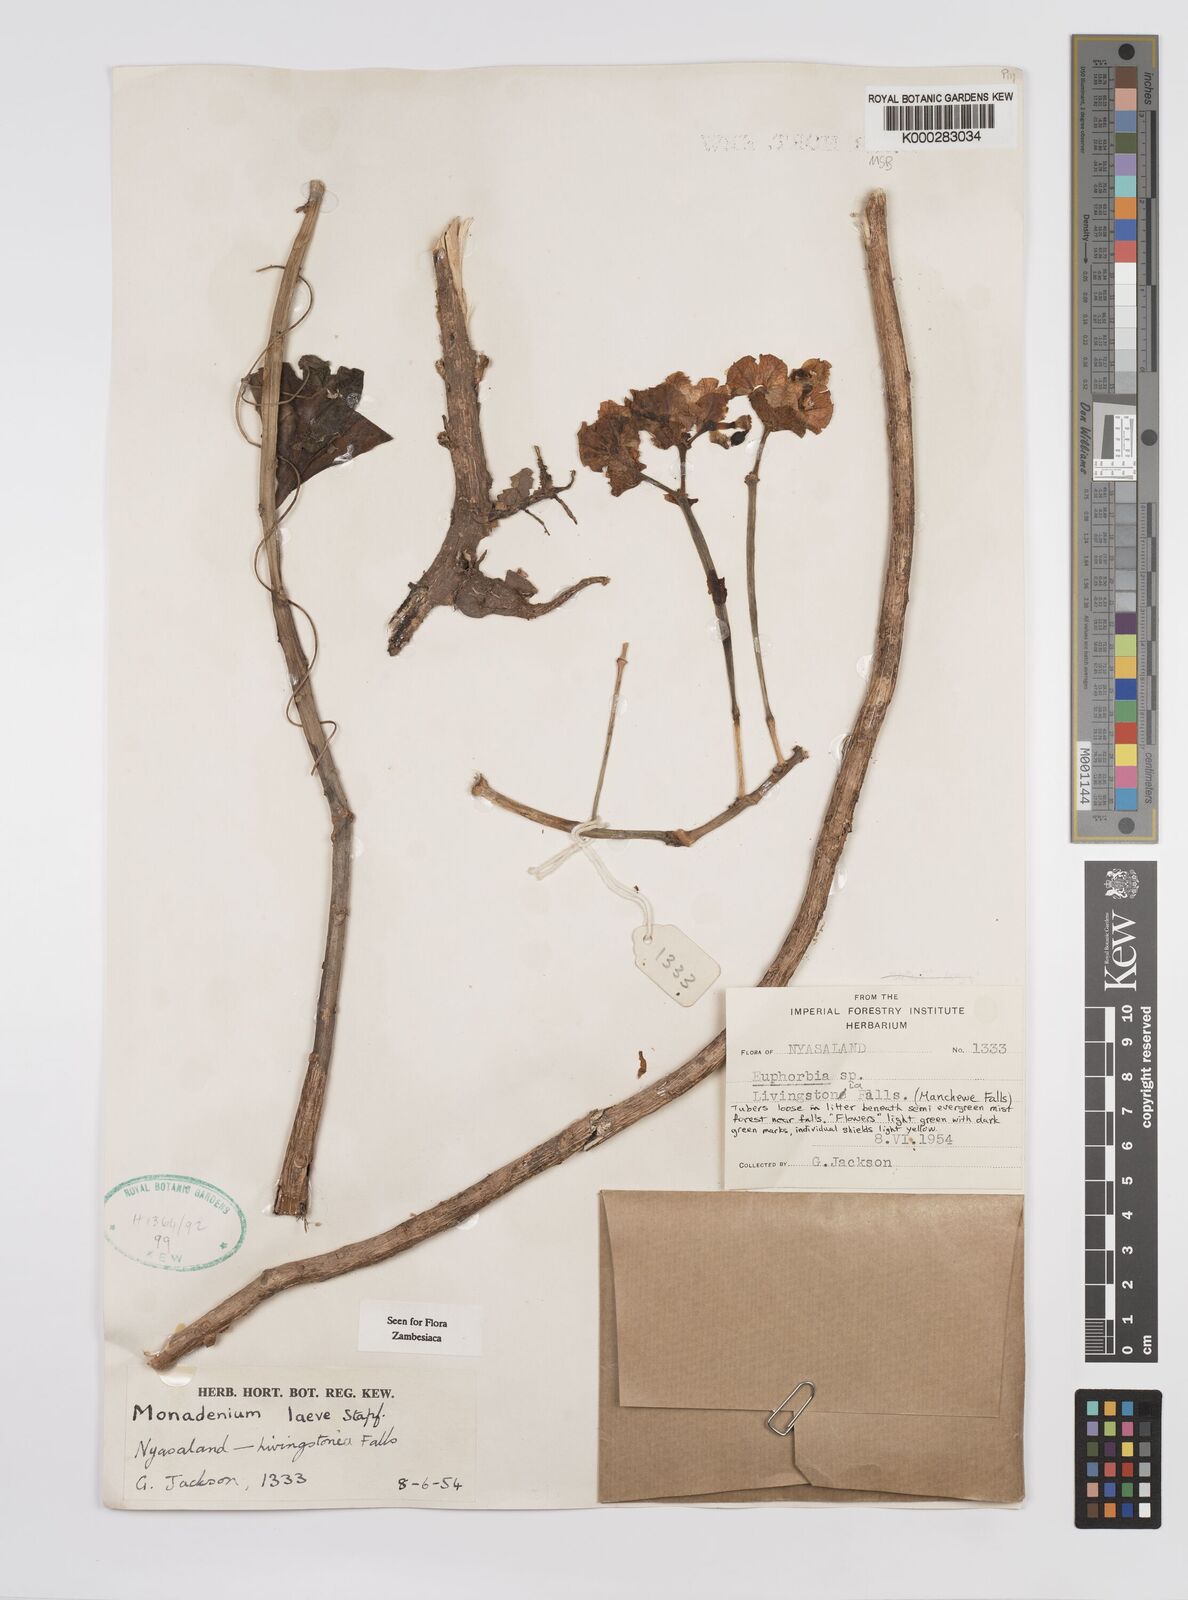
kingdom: Plantae
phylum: Tracheophyta
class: Magnoliopsida
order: Malpighiales
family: Euphorbiaceae
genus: Euphorbia
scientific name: Euphorbia pseudolaevis
